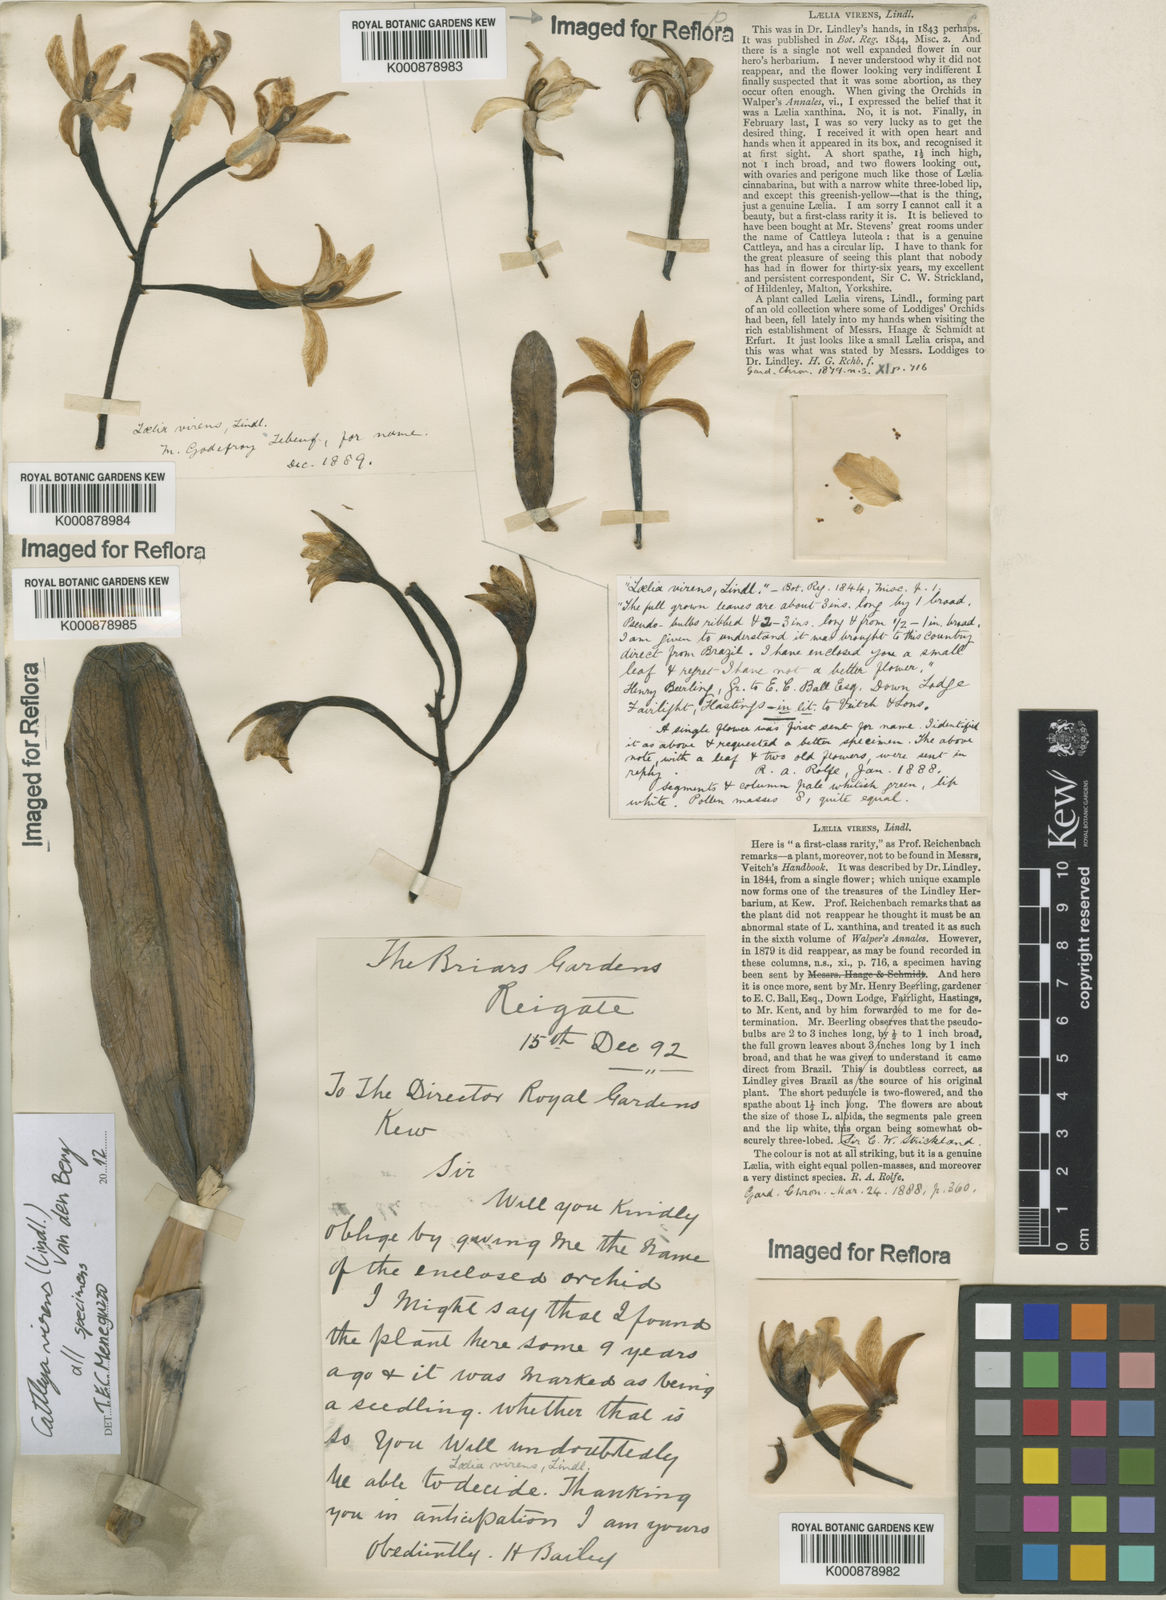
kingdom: Plantae
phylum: Tracheophyta
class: Liliopsida
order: Asparagales
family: Orchidaceae
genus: Cattleya
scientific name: Cattleya virens
